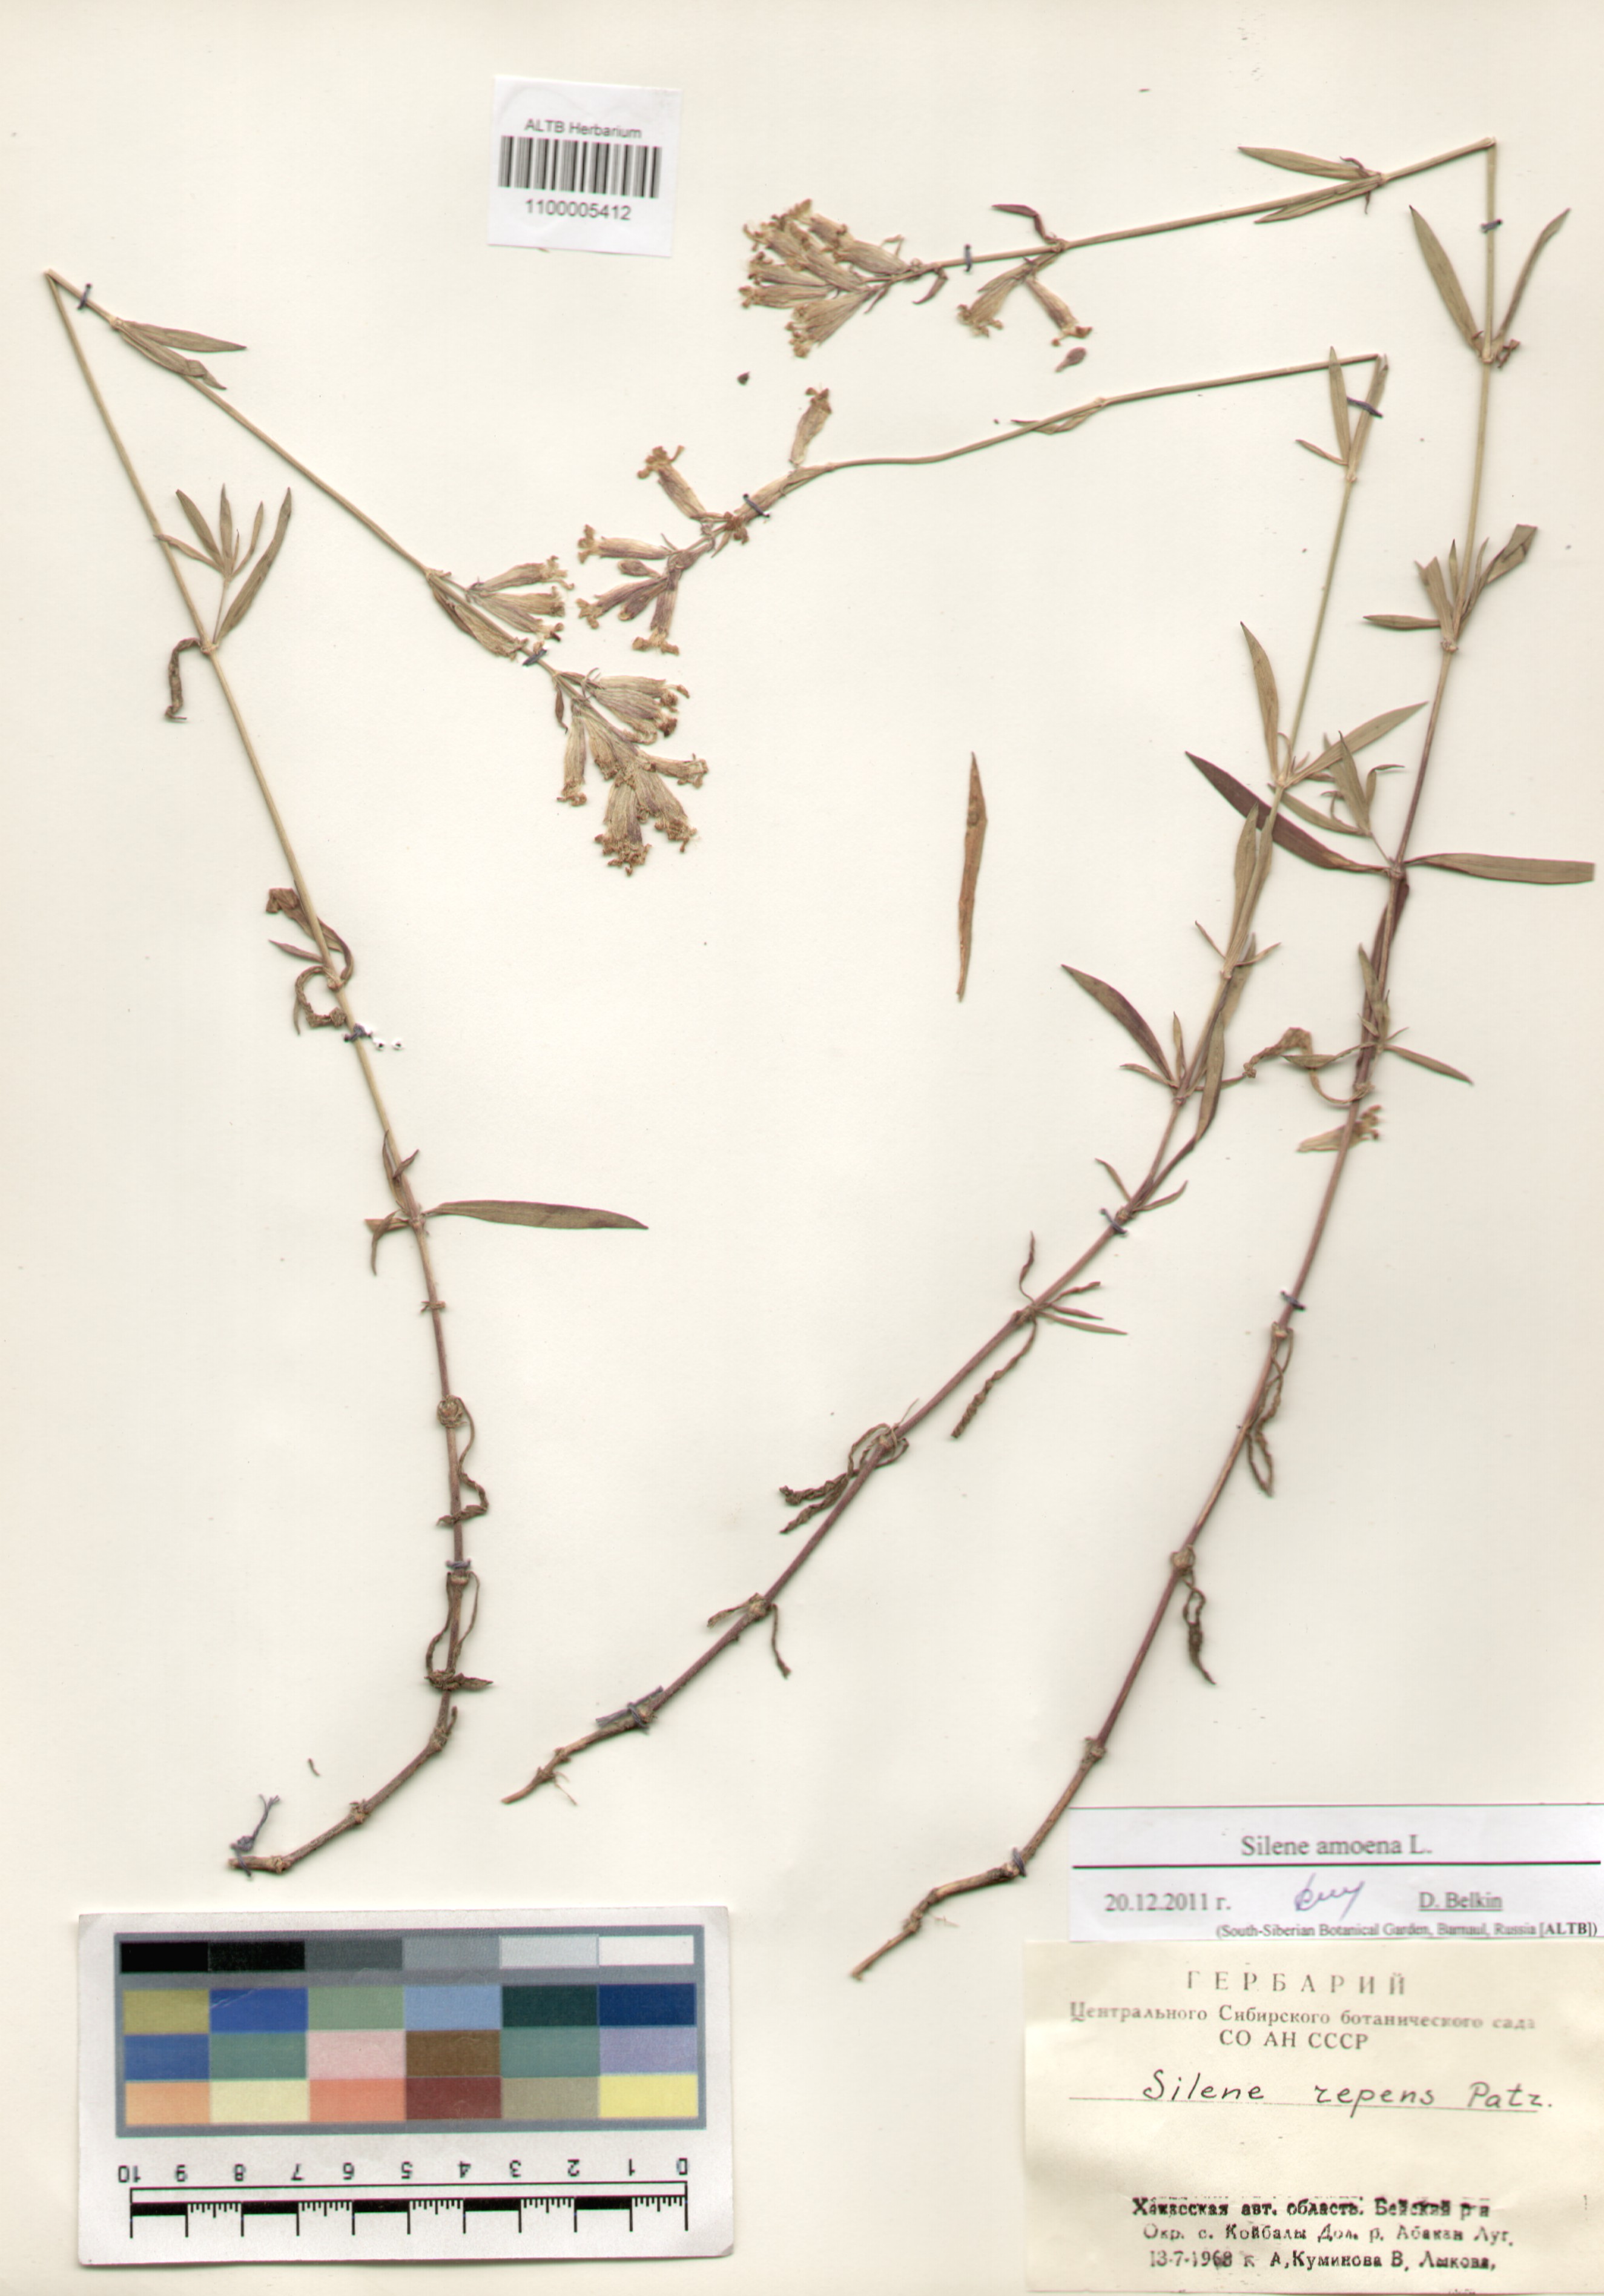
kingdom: Plantae
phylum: Tracheophyta
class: Magnoliopsida
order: Caryophyllales
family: Caryophyllaceae
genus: Silene
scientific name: Silene amoena
